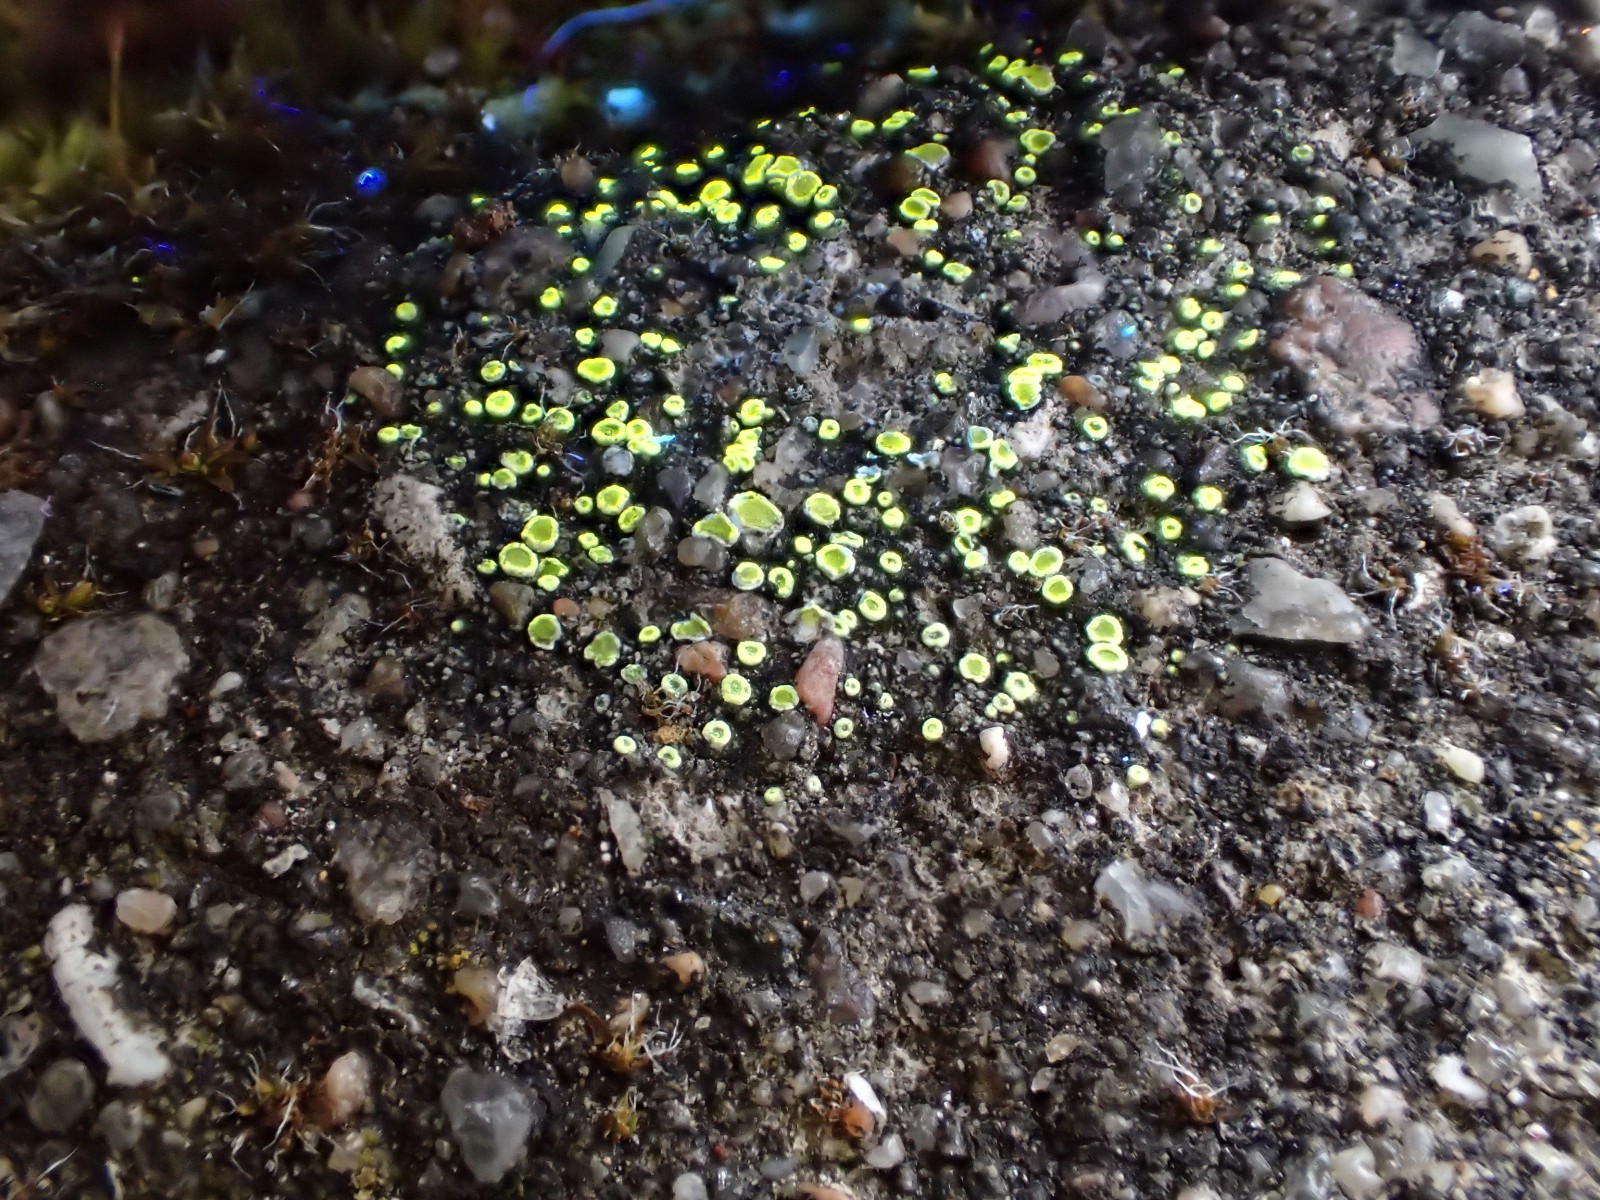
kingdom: Fungi
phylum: Ascomycota
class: Lecanoromycetes
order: Lecanorales
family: Lecanoraceae
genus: Polyozosia
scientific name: Polyozosia semipallida
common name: vinetorin-kantskivelav
